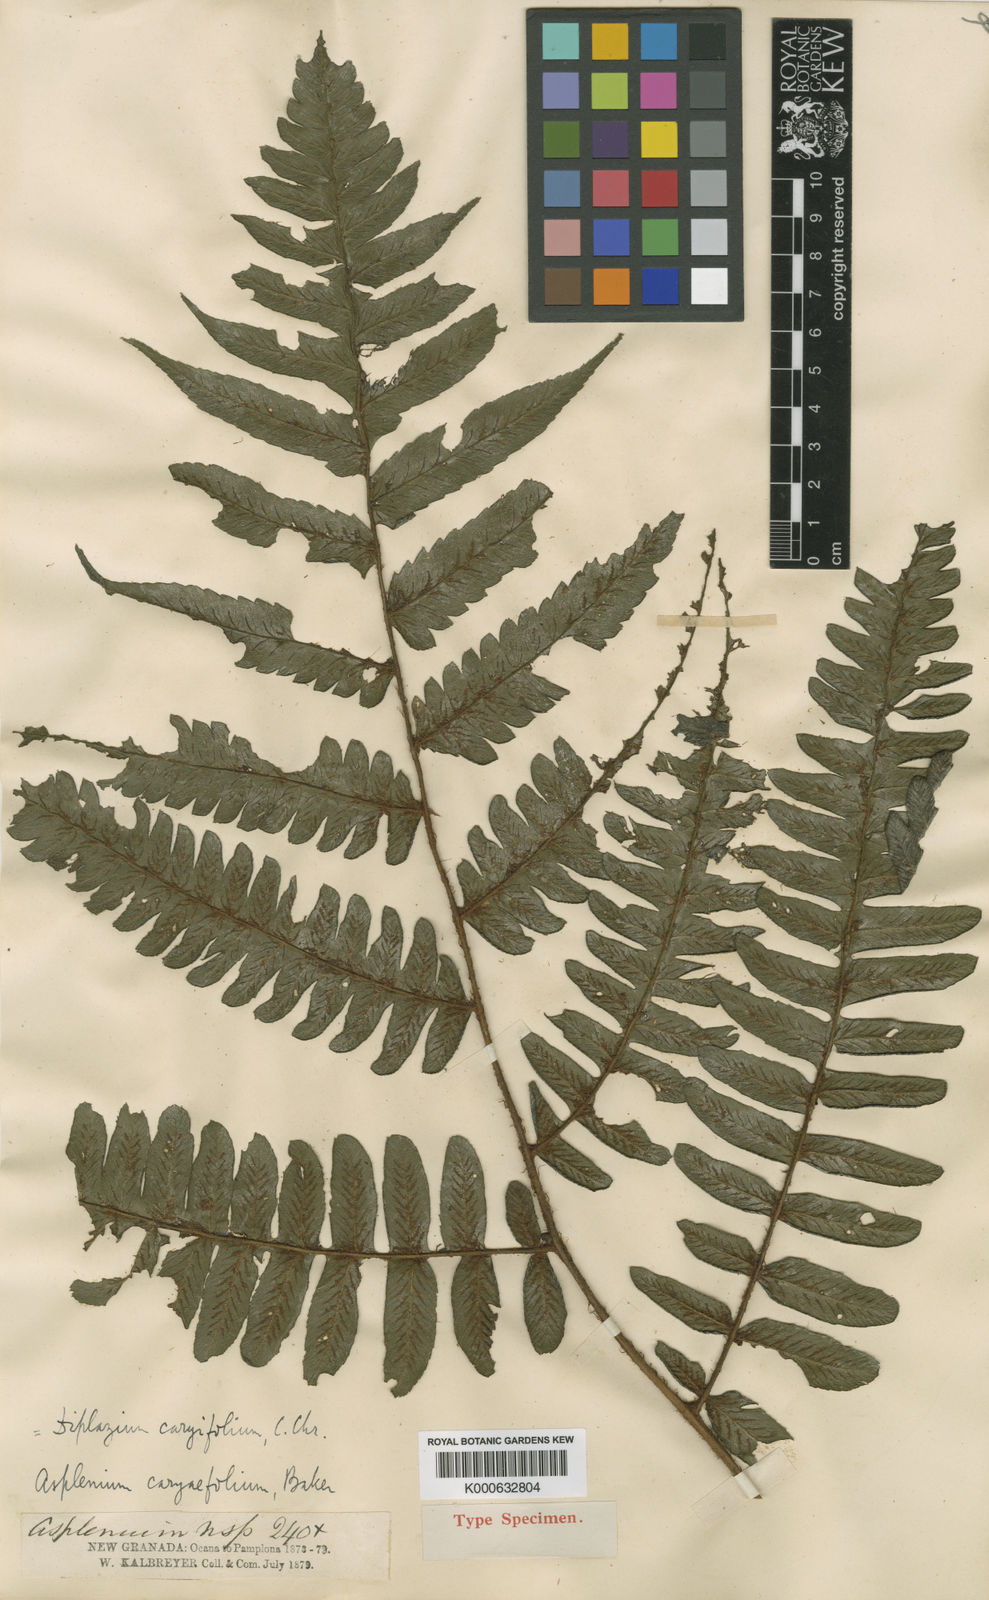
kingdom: Plantae
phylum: Tracheophyta
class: Polypodiopsida
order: Polypodiales
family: Athyriaceae
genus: Diplazium
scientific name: Diplazium nervosum
